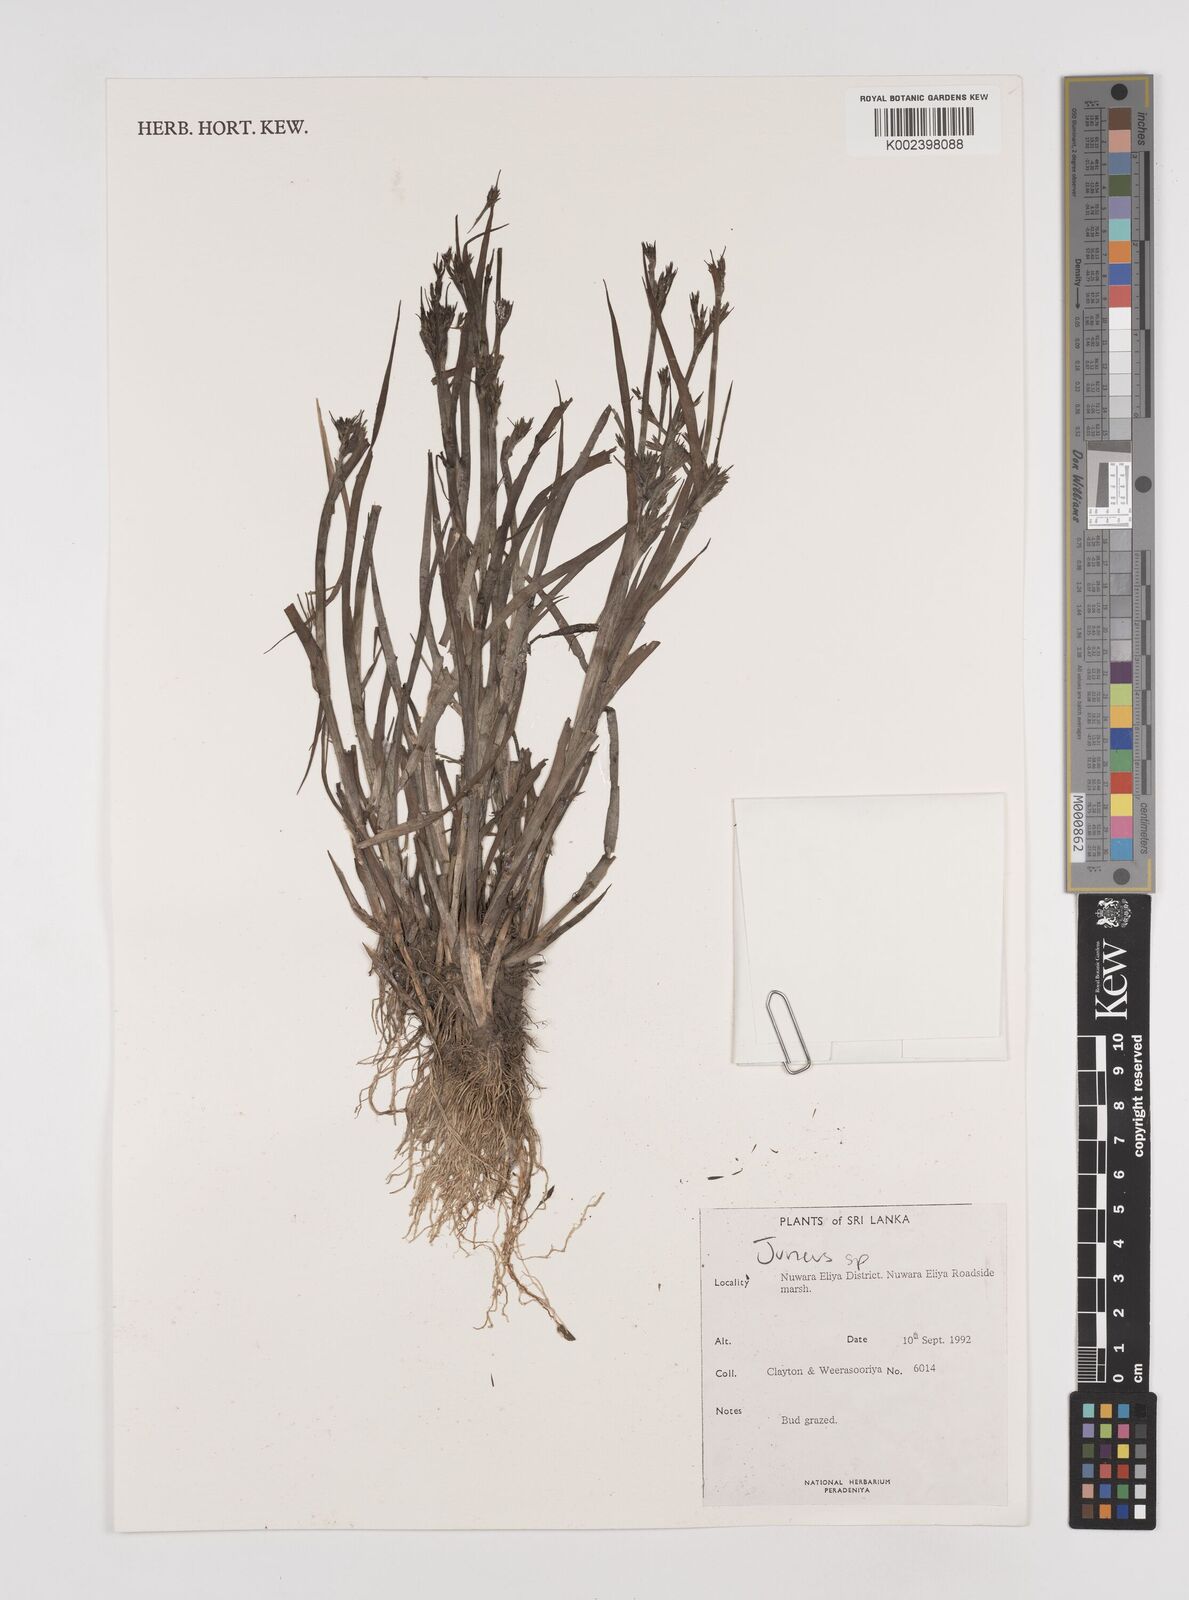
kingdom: Plantae
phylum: Tracheophyta
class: Liliopsida
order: Poales
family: Juncaceae
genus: Juncus
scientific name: Juncus
